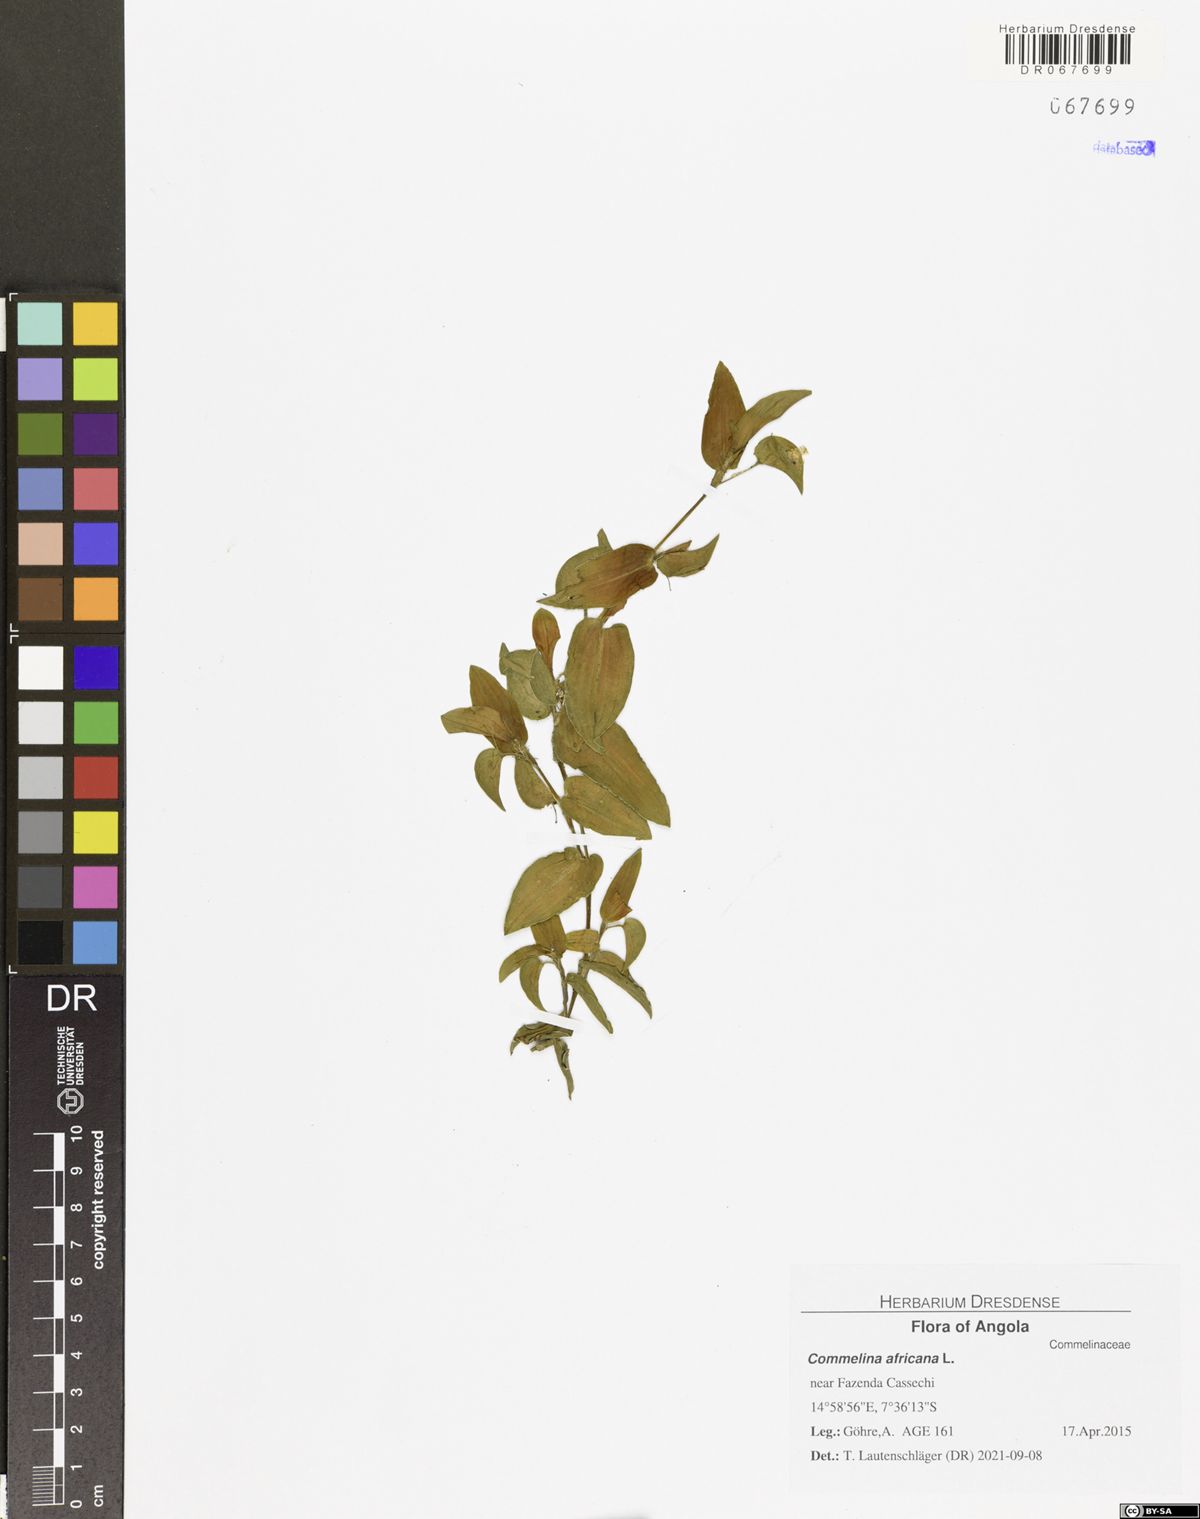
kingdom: Plantae
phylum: Tracheophyta
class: Liliopsida
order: Commelinales
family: Commelinaceae
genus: Commelina
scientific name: Commelina africana
